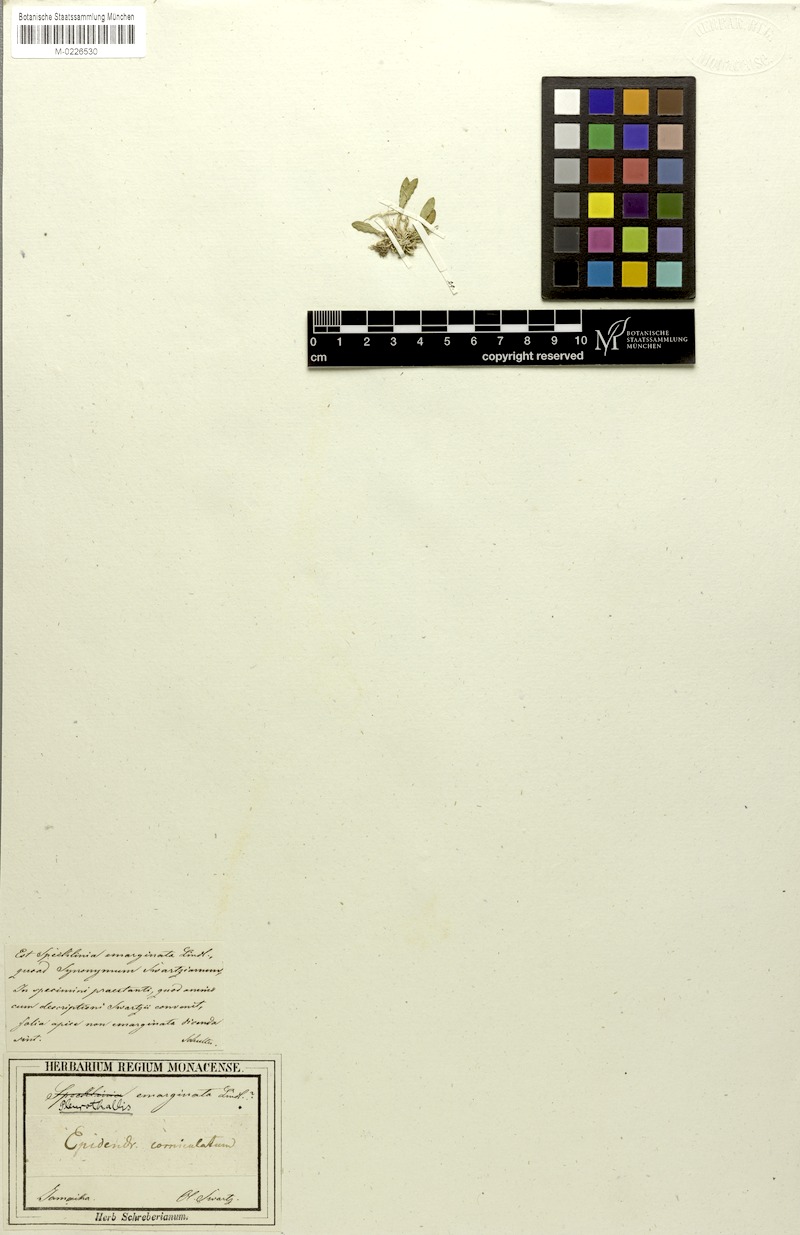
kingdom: Plantae
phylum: Tracheophyta
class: Liliopsida
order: Asparagales
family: Orchidaceae
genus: Specklinia
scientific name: Specklinia corniculata
